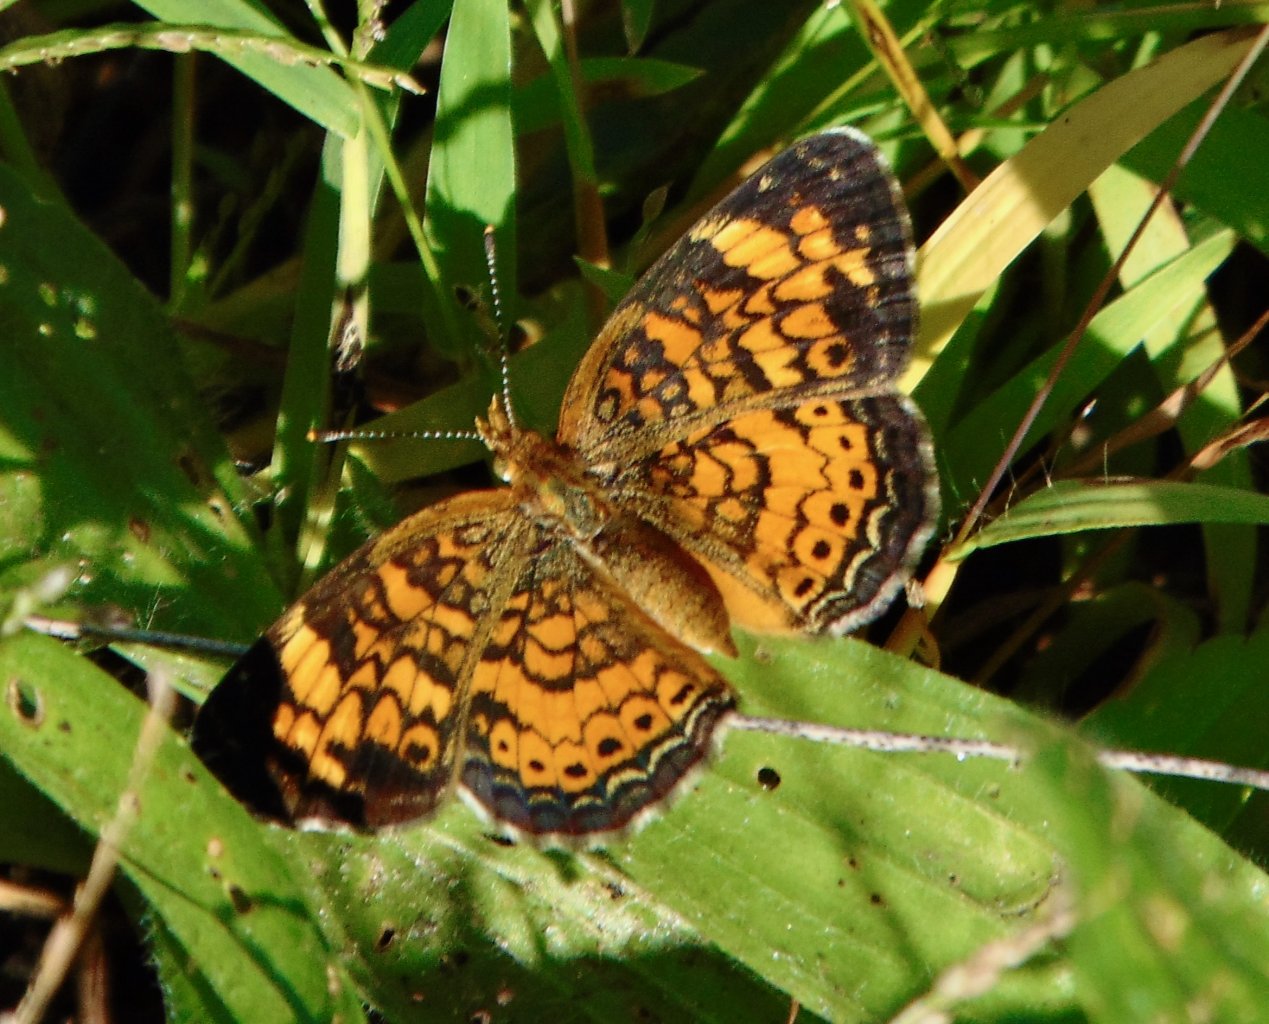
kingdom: Animalia
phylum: Arthropoda
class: Insecta
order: Lepidoptera
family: Nymphalidae
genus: Phyciodes
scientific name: Phyciodes tharos
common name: Pearl Crescent
